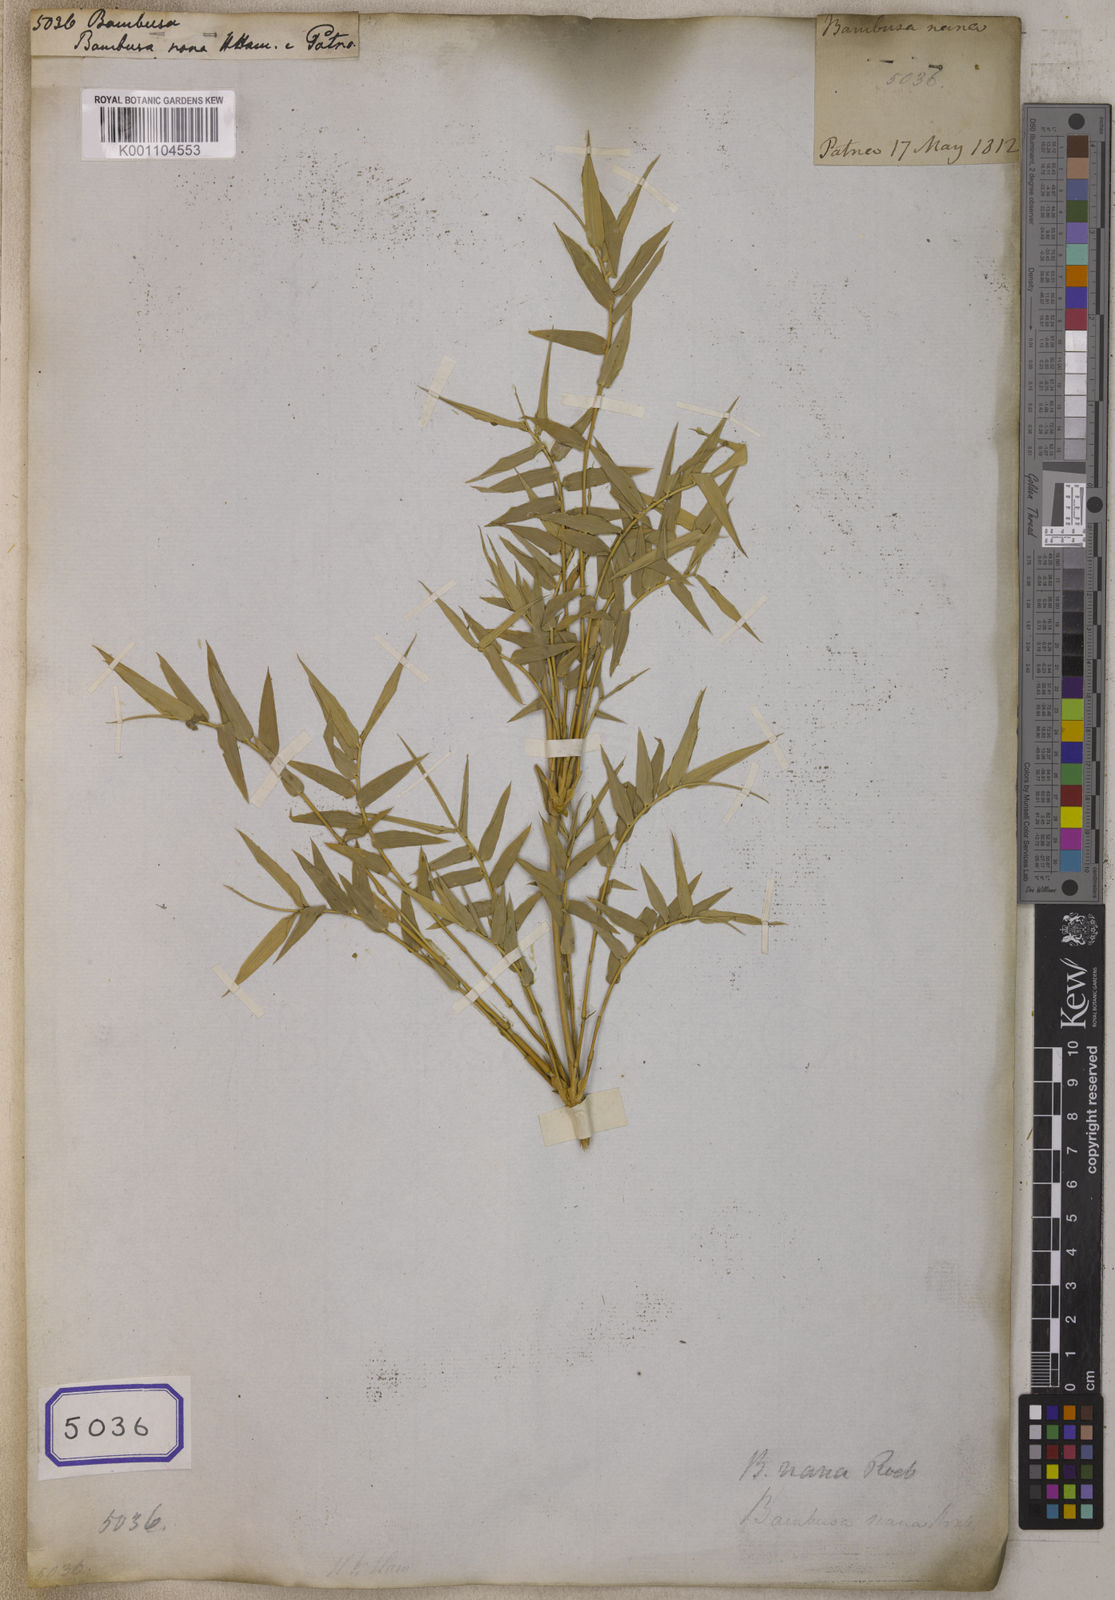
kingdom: Plantae
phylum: Tracheophyta
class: Liliopsida
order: Poales
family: Poaceae
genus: Bambusa
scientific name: Bambusa
